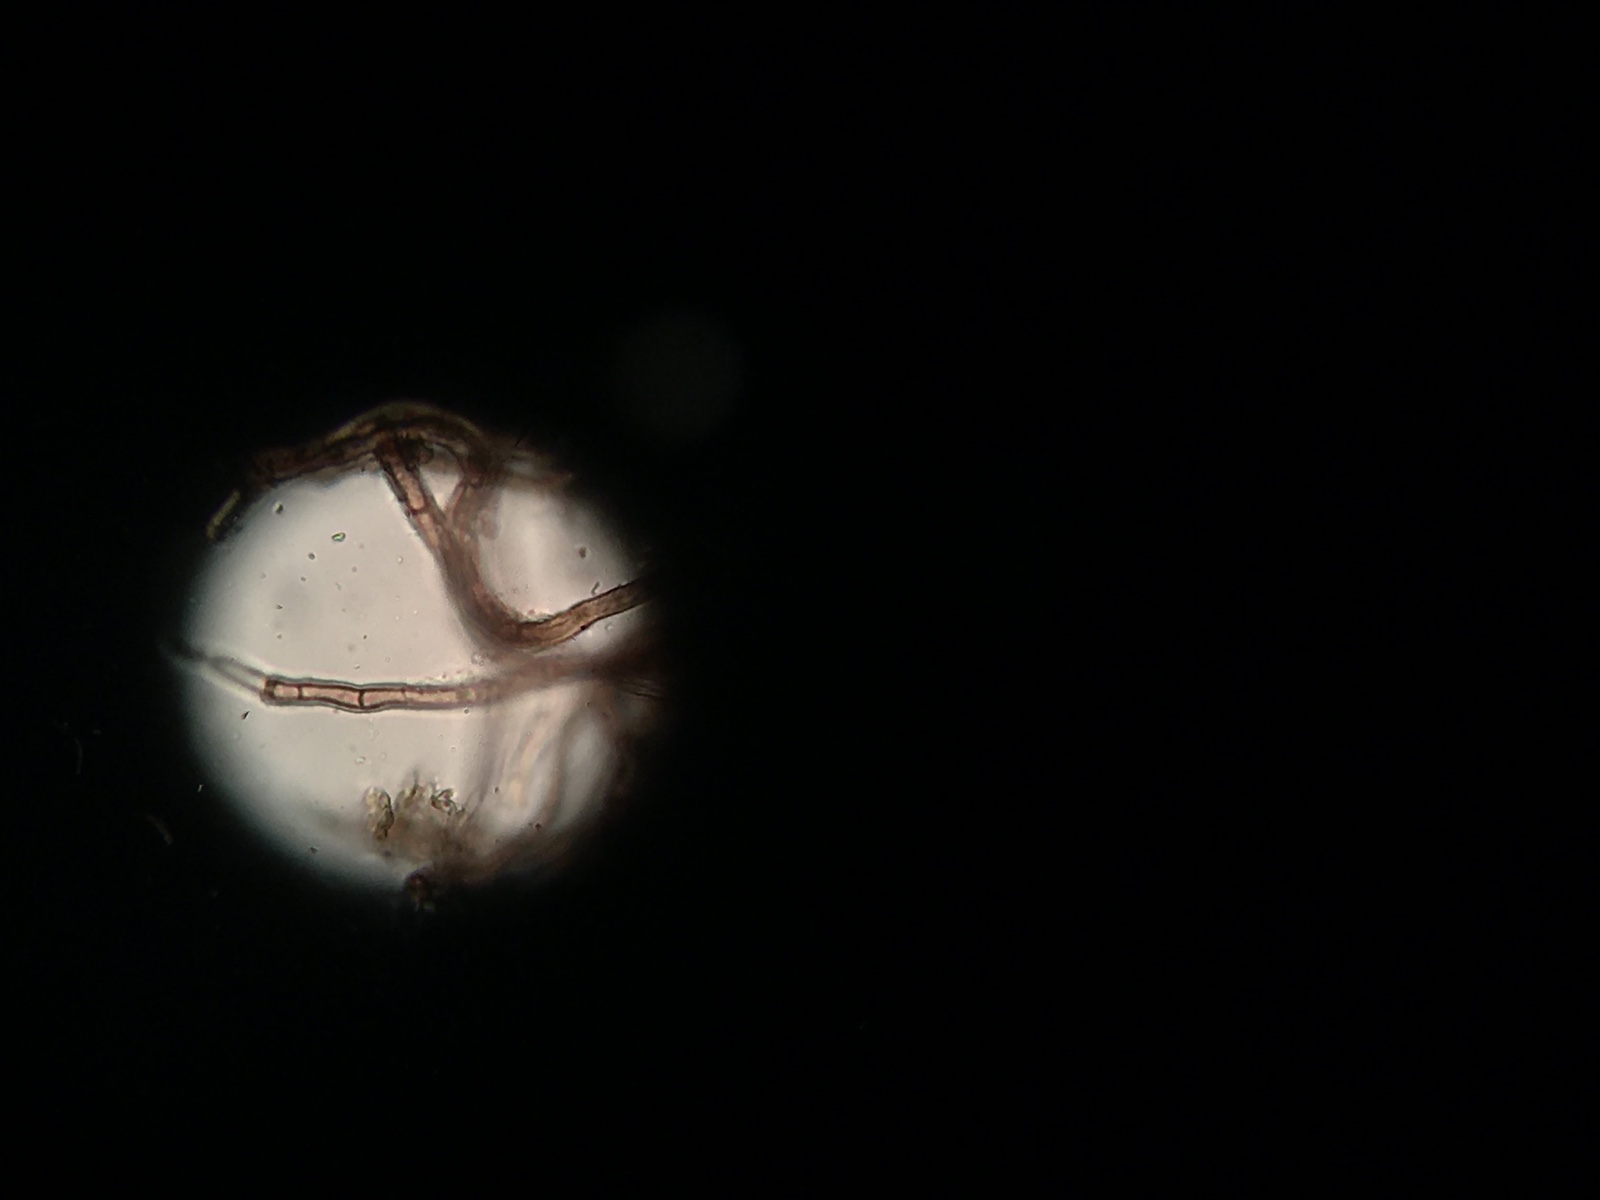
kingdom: Fungi
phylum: Ascomycota
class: Leotiomycetes
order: Helotiales
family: Mollisiaceae
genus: Tapesia
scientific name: Tapesia fusca
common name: tæppe-gråskive
